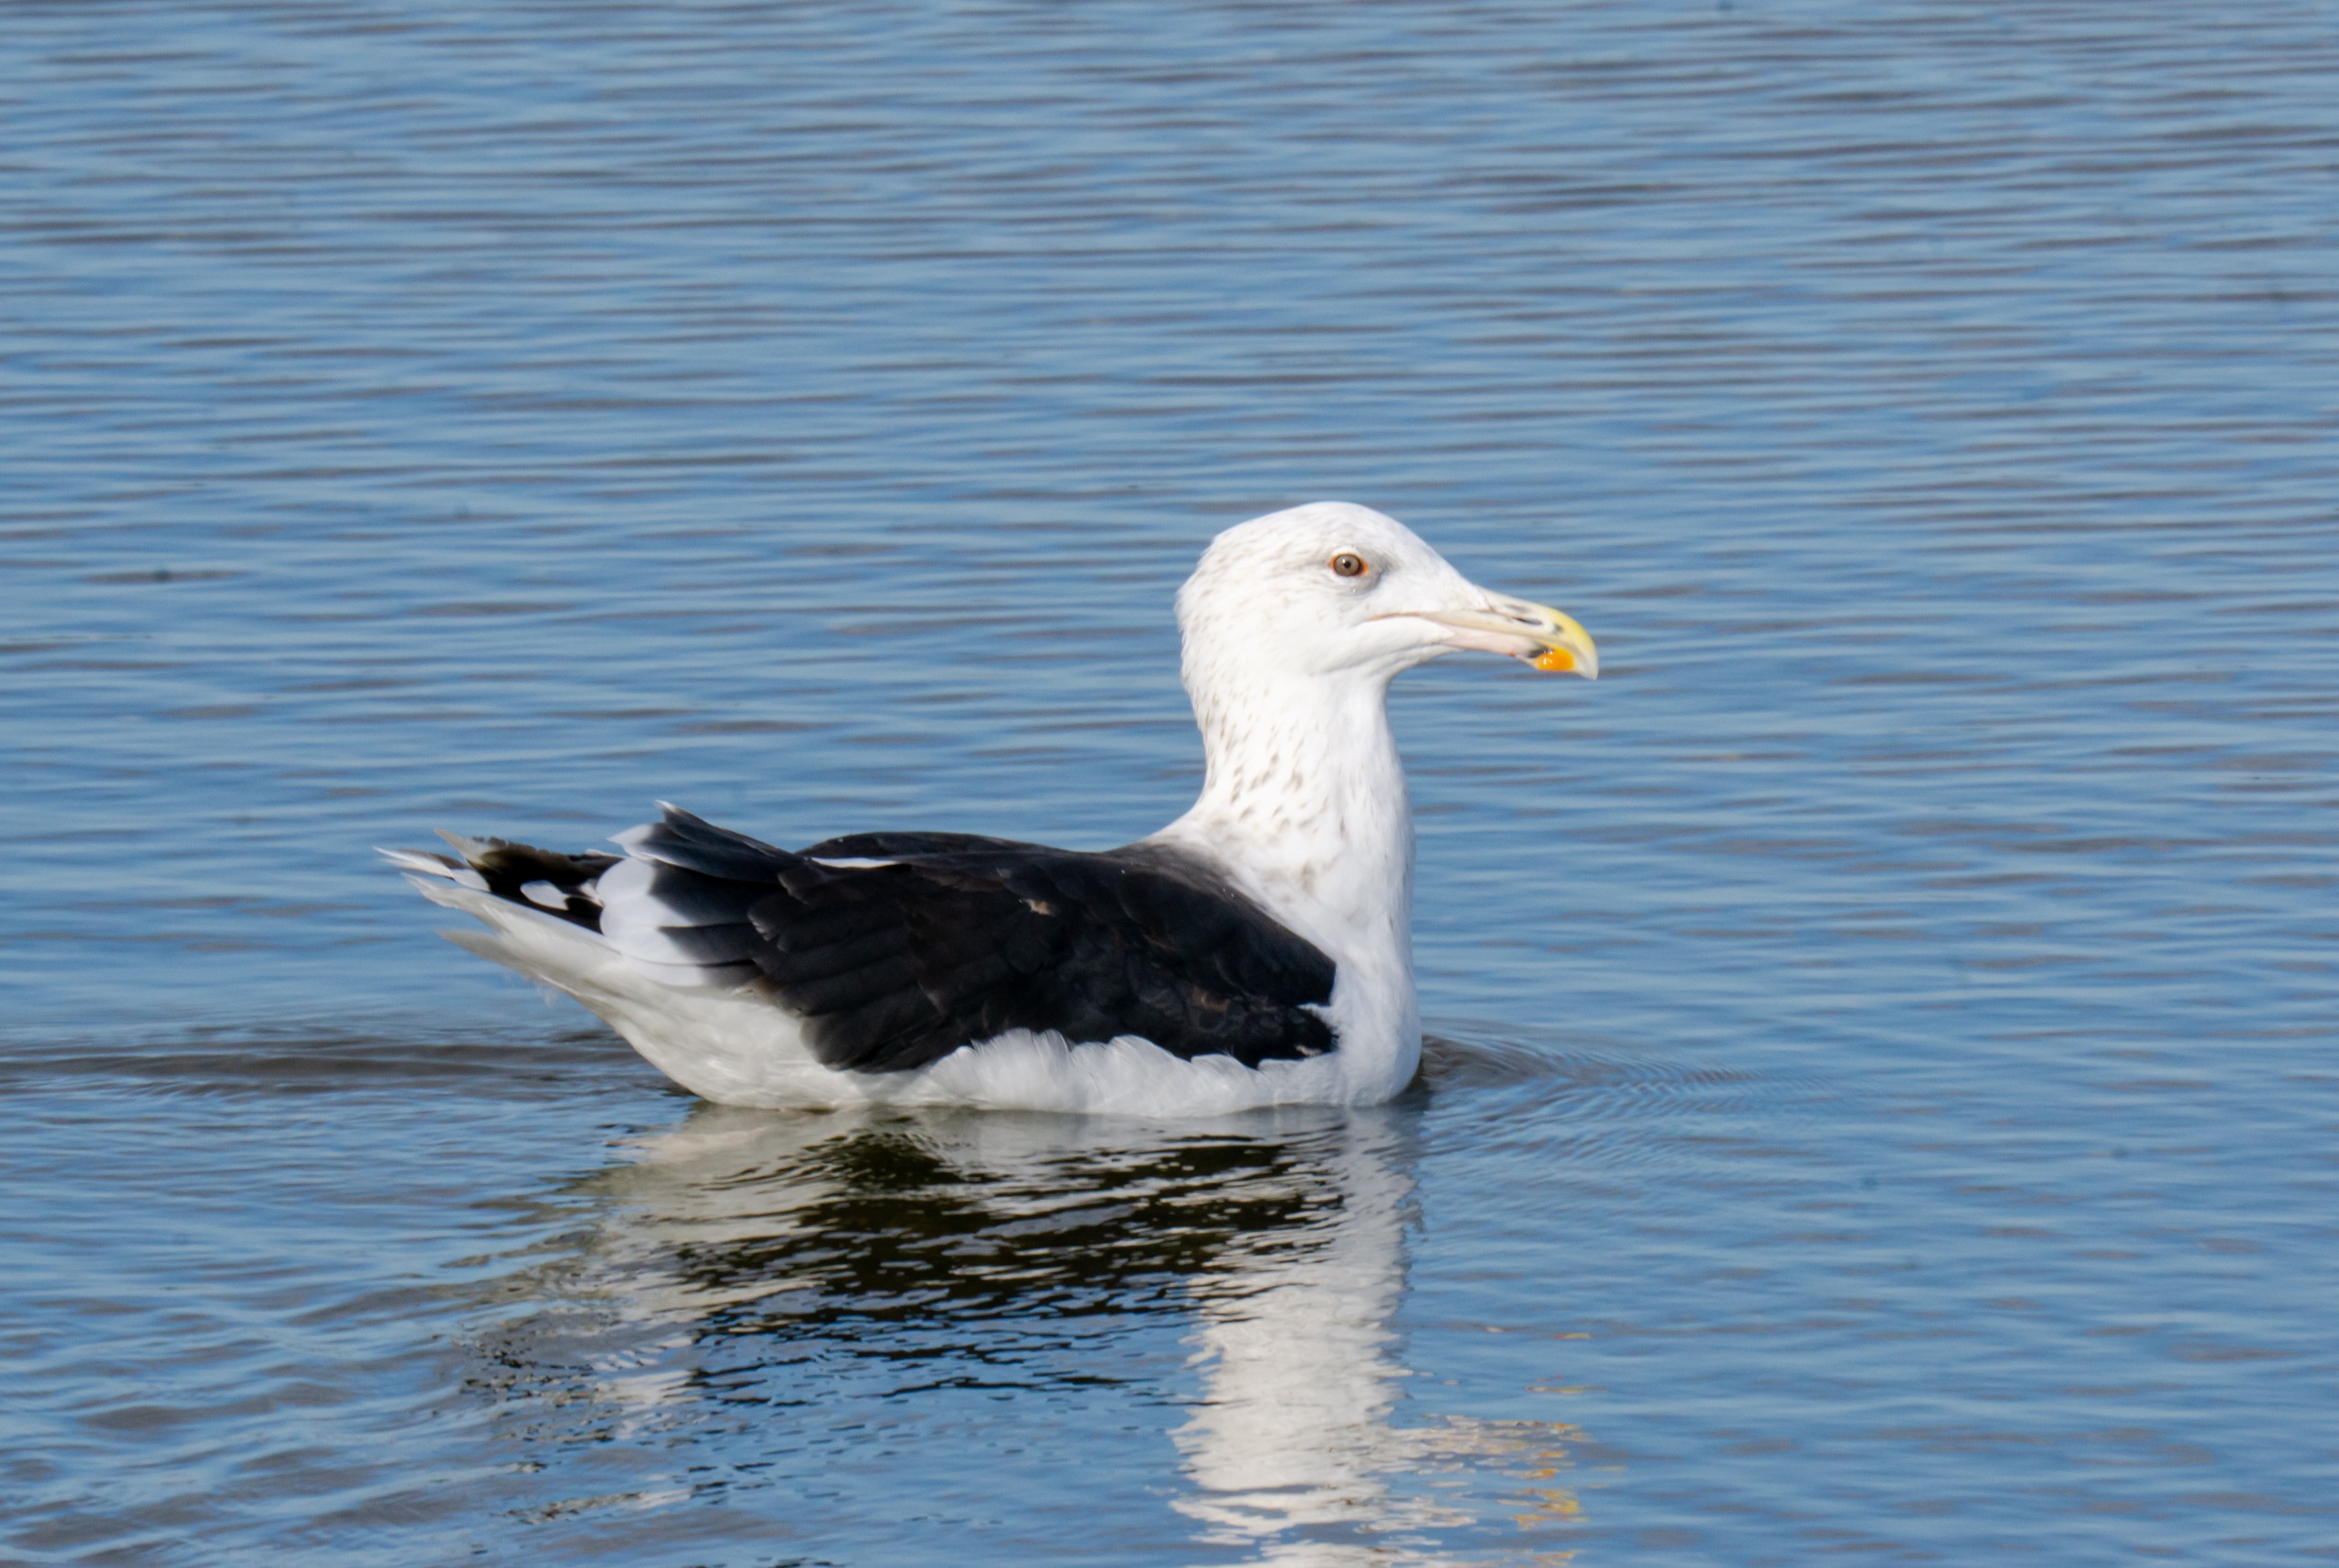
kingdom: Animalia
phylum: Chordata
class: Aves
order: Charadriiformes
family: Laridae
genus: Larus
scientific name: Larus marinus
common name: Svartbag
